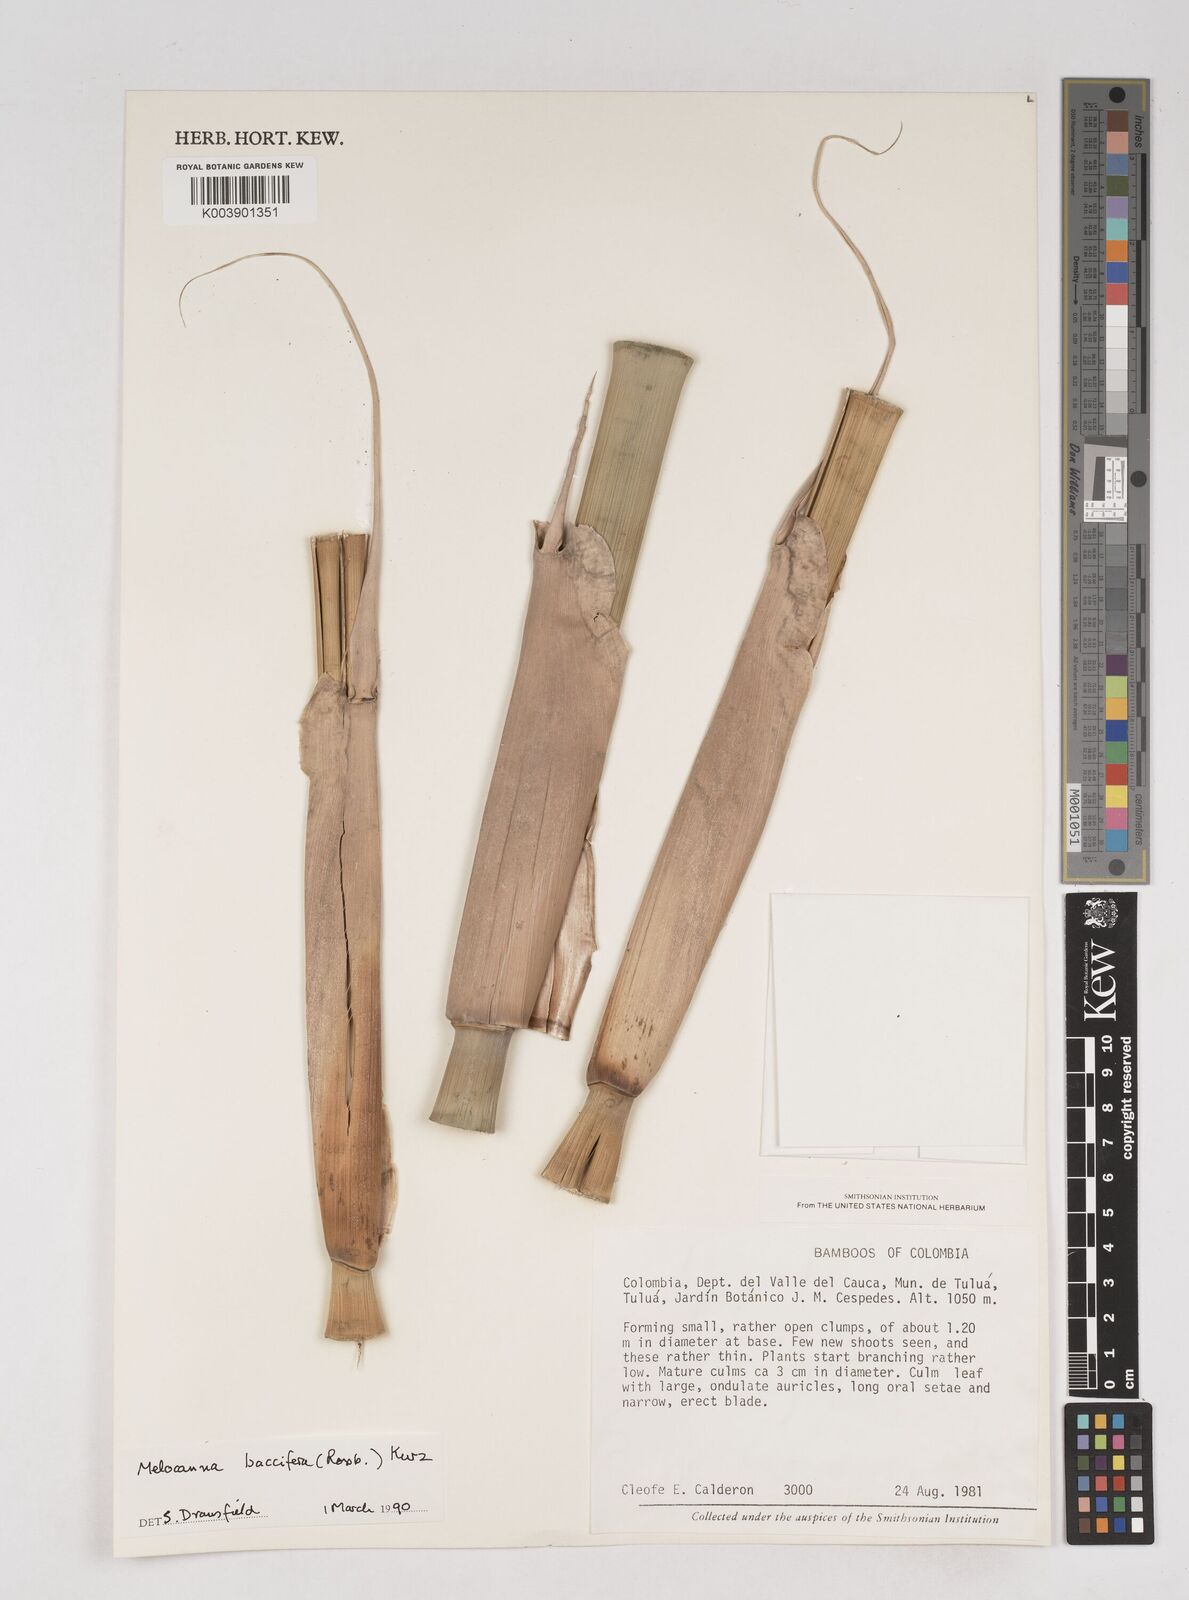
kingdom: Plantae
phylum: Tracheophyta
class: Liliopsida
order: Poales
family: Poaceae
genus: Melocanna
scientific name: Melocanna
